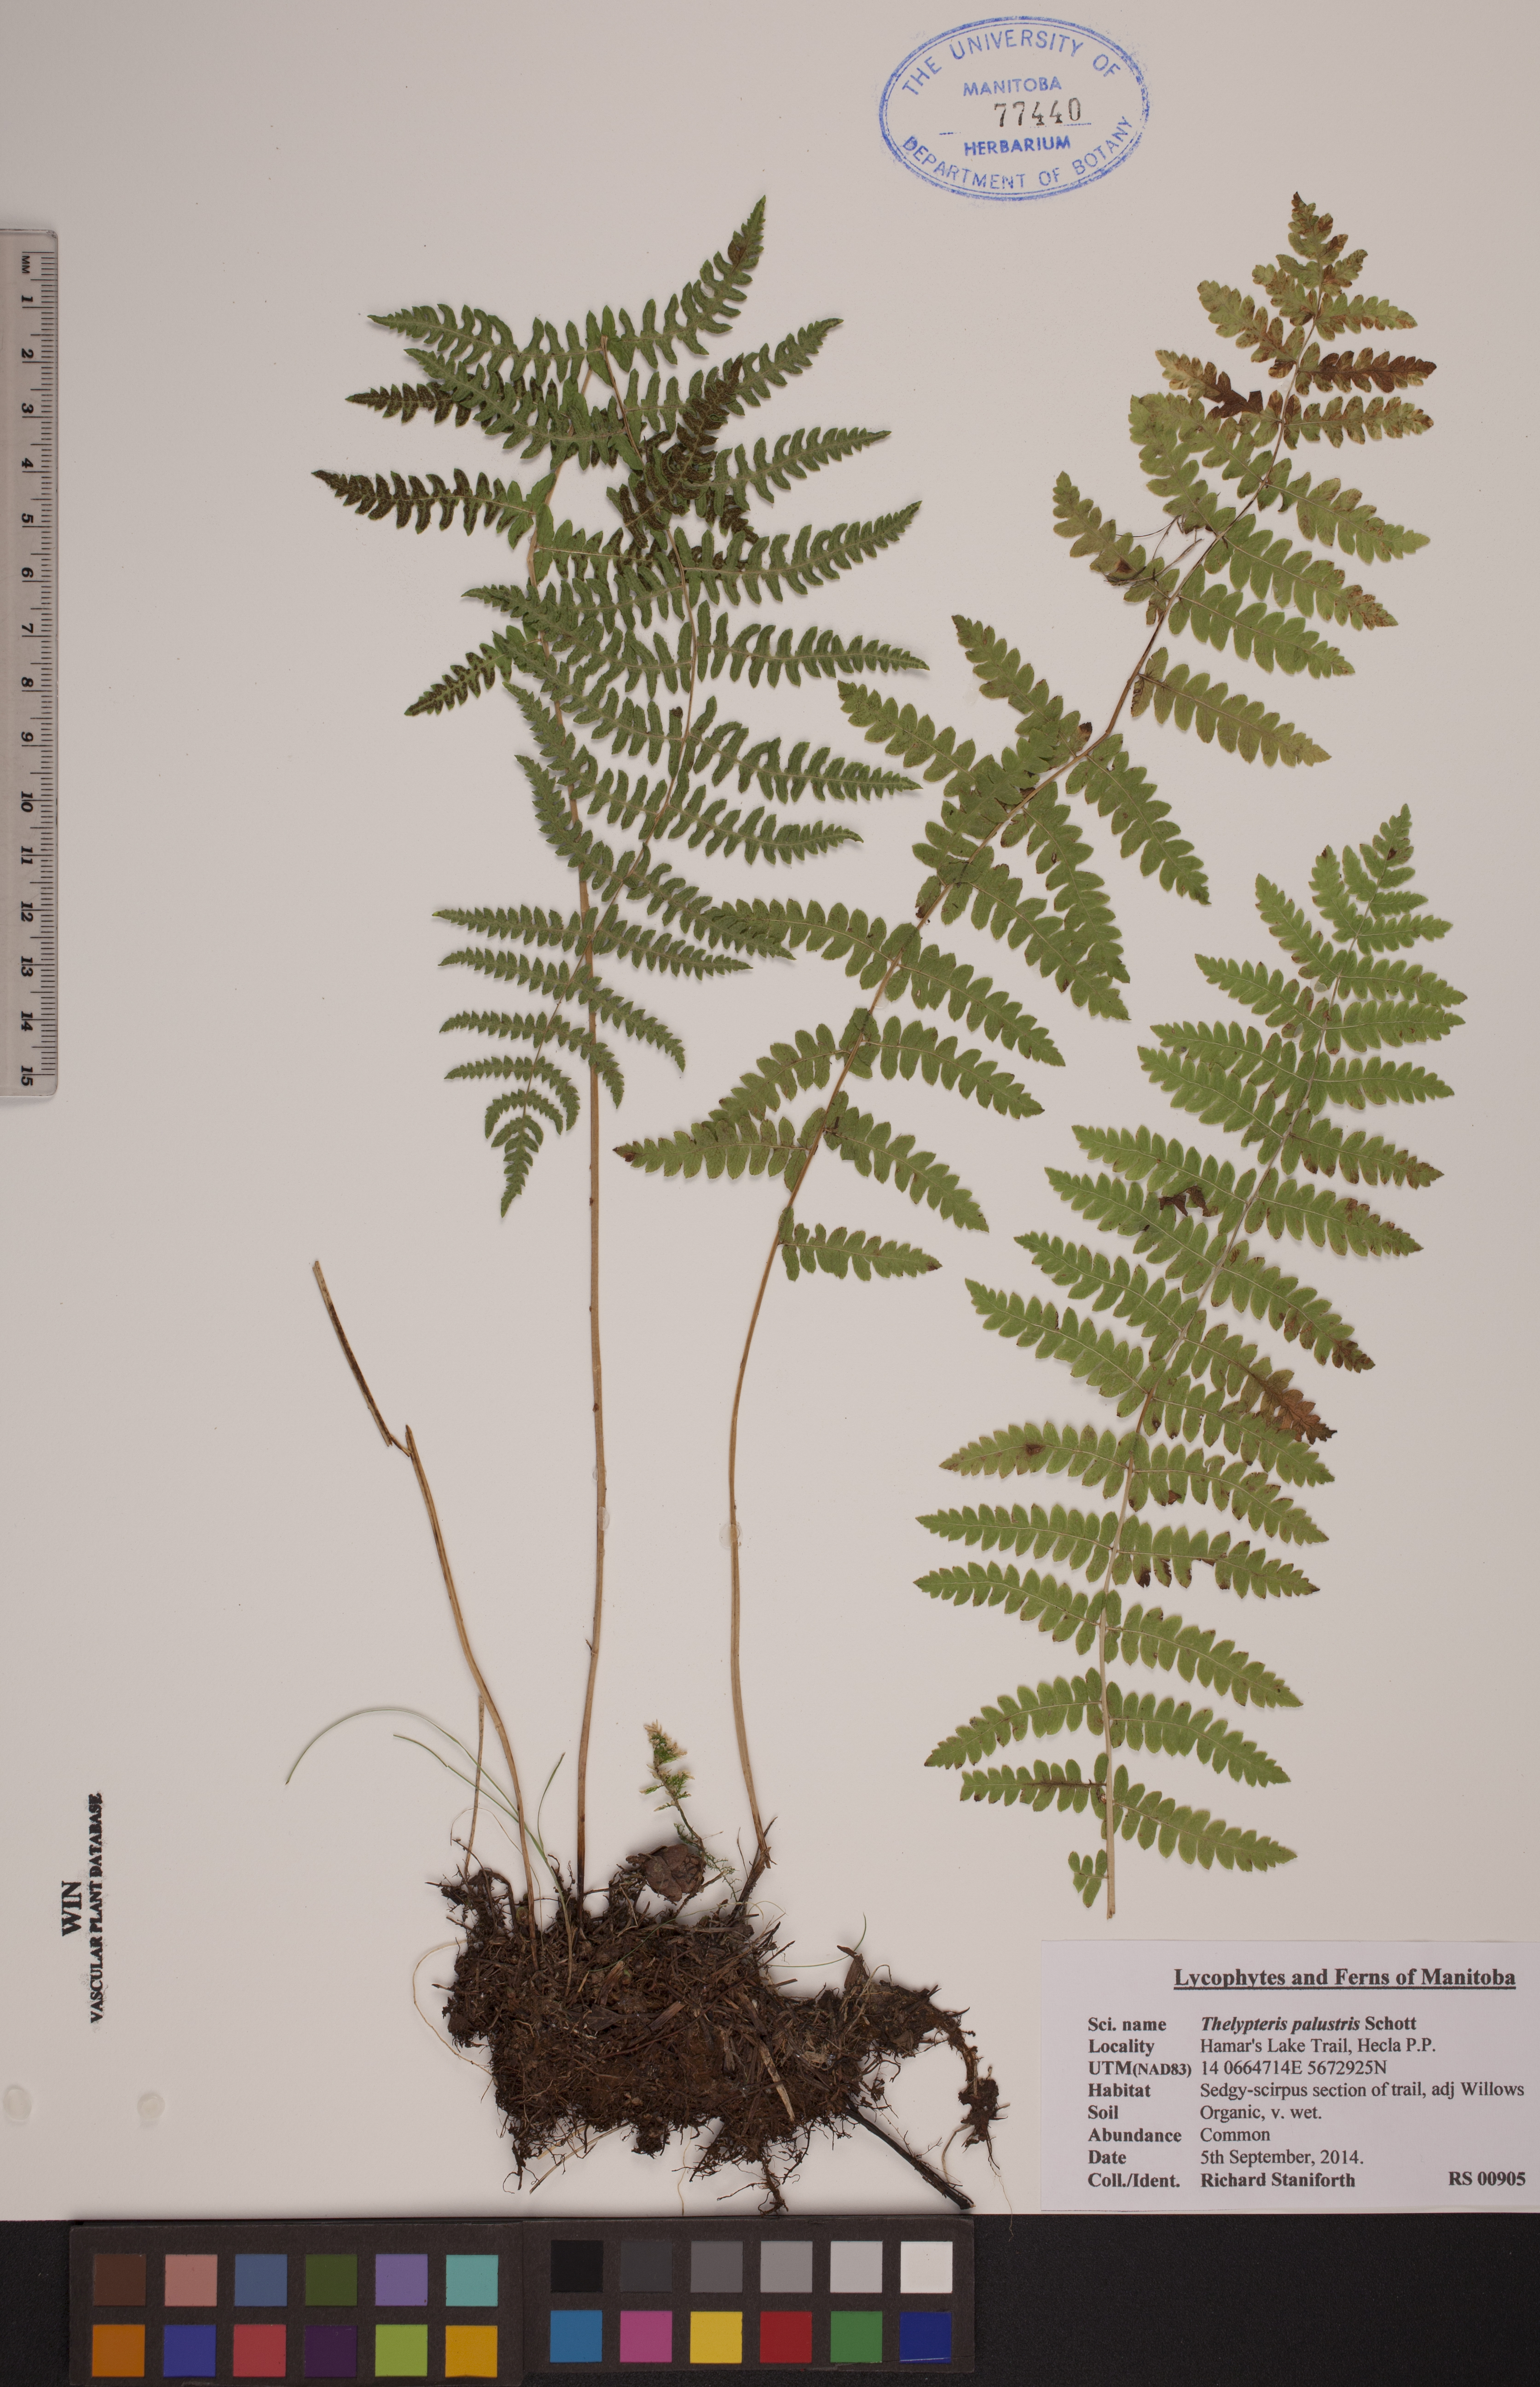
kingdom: Plantae
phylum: Tracheophyta
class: Polypodiopsida
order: Polypodiales
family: Thelypteridaceae
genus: Thelypteris
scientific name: Thelypteris palustris
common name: Marsh fern
